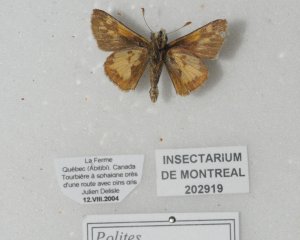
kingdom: Animalia
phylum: Arthropoda
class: Insecta
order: Lepidoptera
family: Hesperiidae
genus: Polites
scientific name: Polites coras
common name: Peck's Skipper
